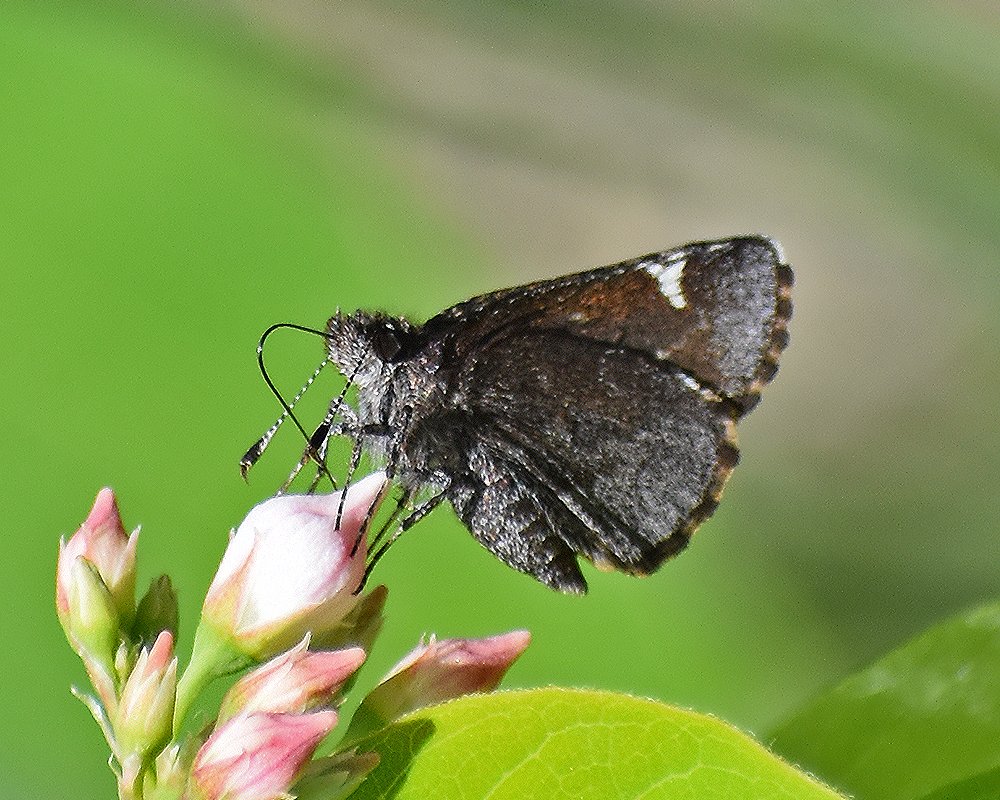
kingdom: Animalia
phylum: Arthropoda
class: Insecta
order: Lepidoptera
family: Hesperiidae
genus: Mastor
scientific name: Mastor vialis
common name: Common Roadside-Skipper
